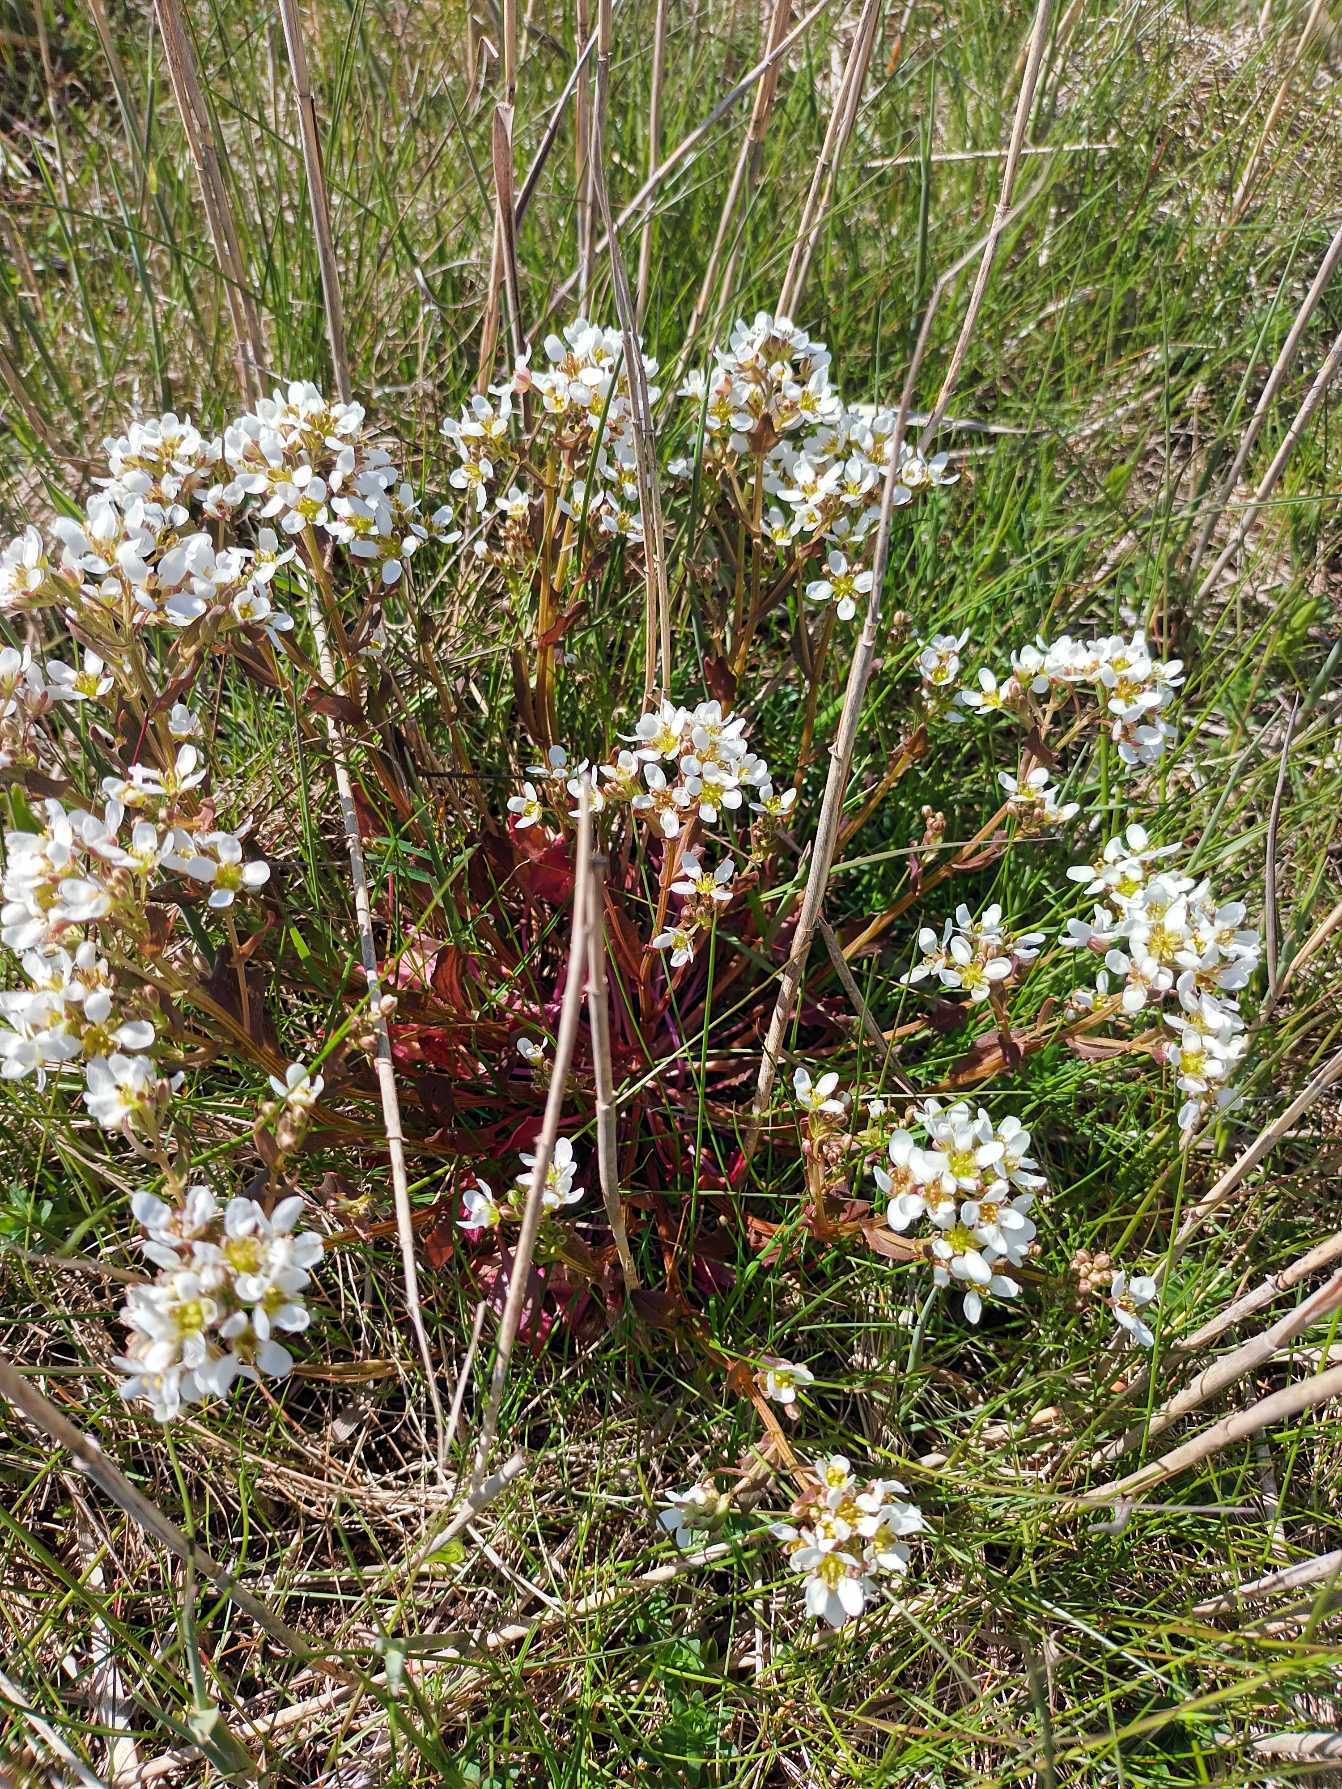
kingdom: Plantae
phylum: Tracheophyta
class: Magnoliopsida
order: Brassicales
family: Brassicaceae
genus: Cochlearia
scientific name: Cochlearia officinalis
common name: Læge-kokleare
